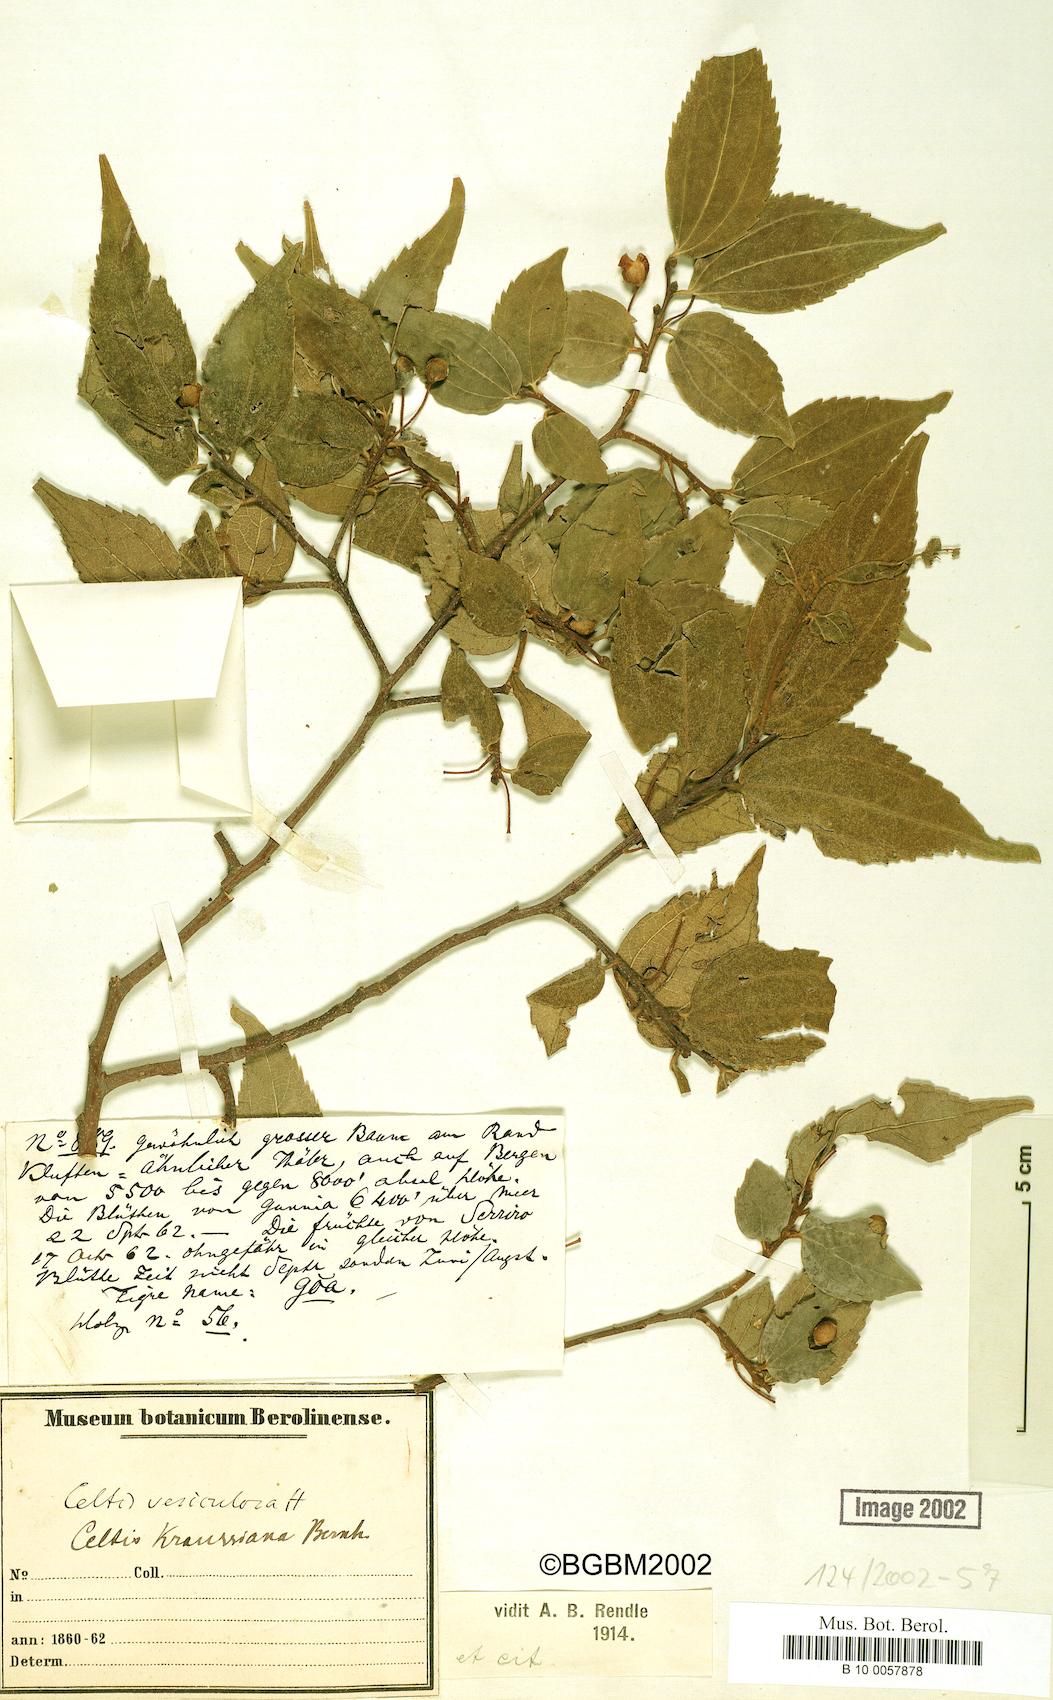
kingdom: Plantae
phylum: Tracheophyta
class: Magnoliopsida
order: Rosales
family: Cannabaceae
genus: Celtis
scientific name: Celtis africana
